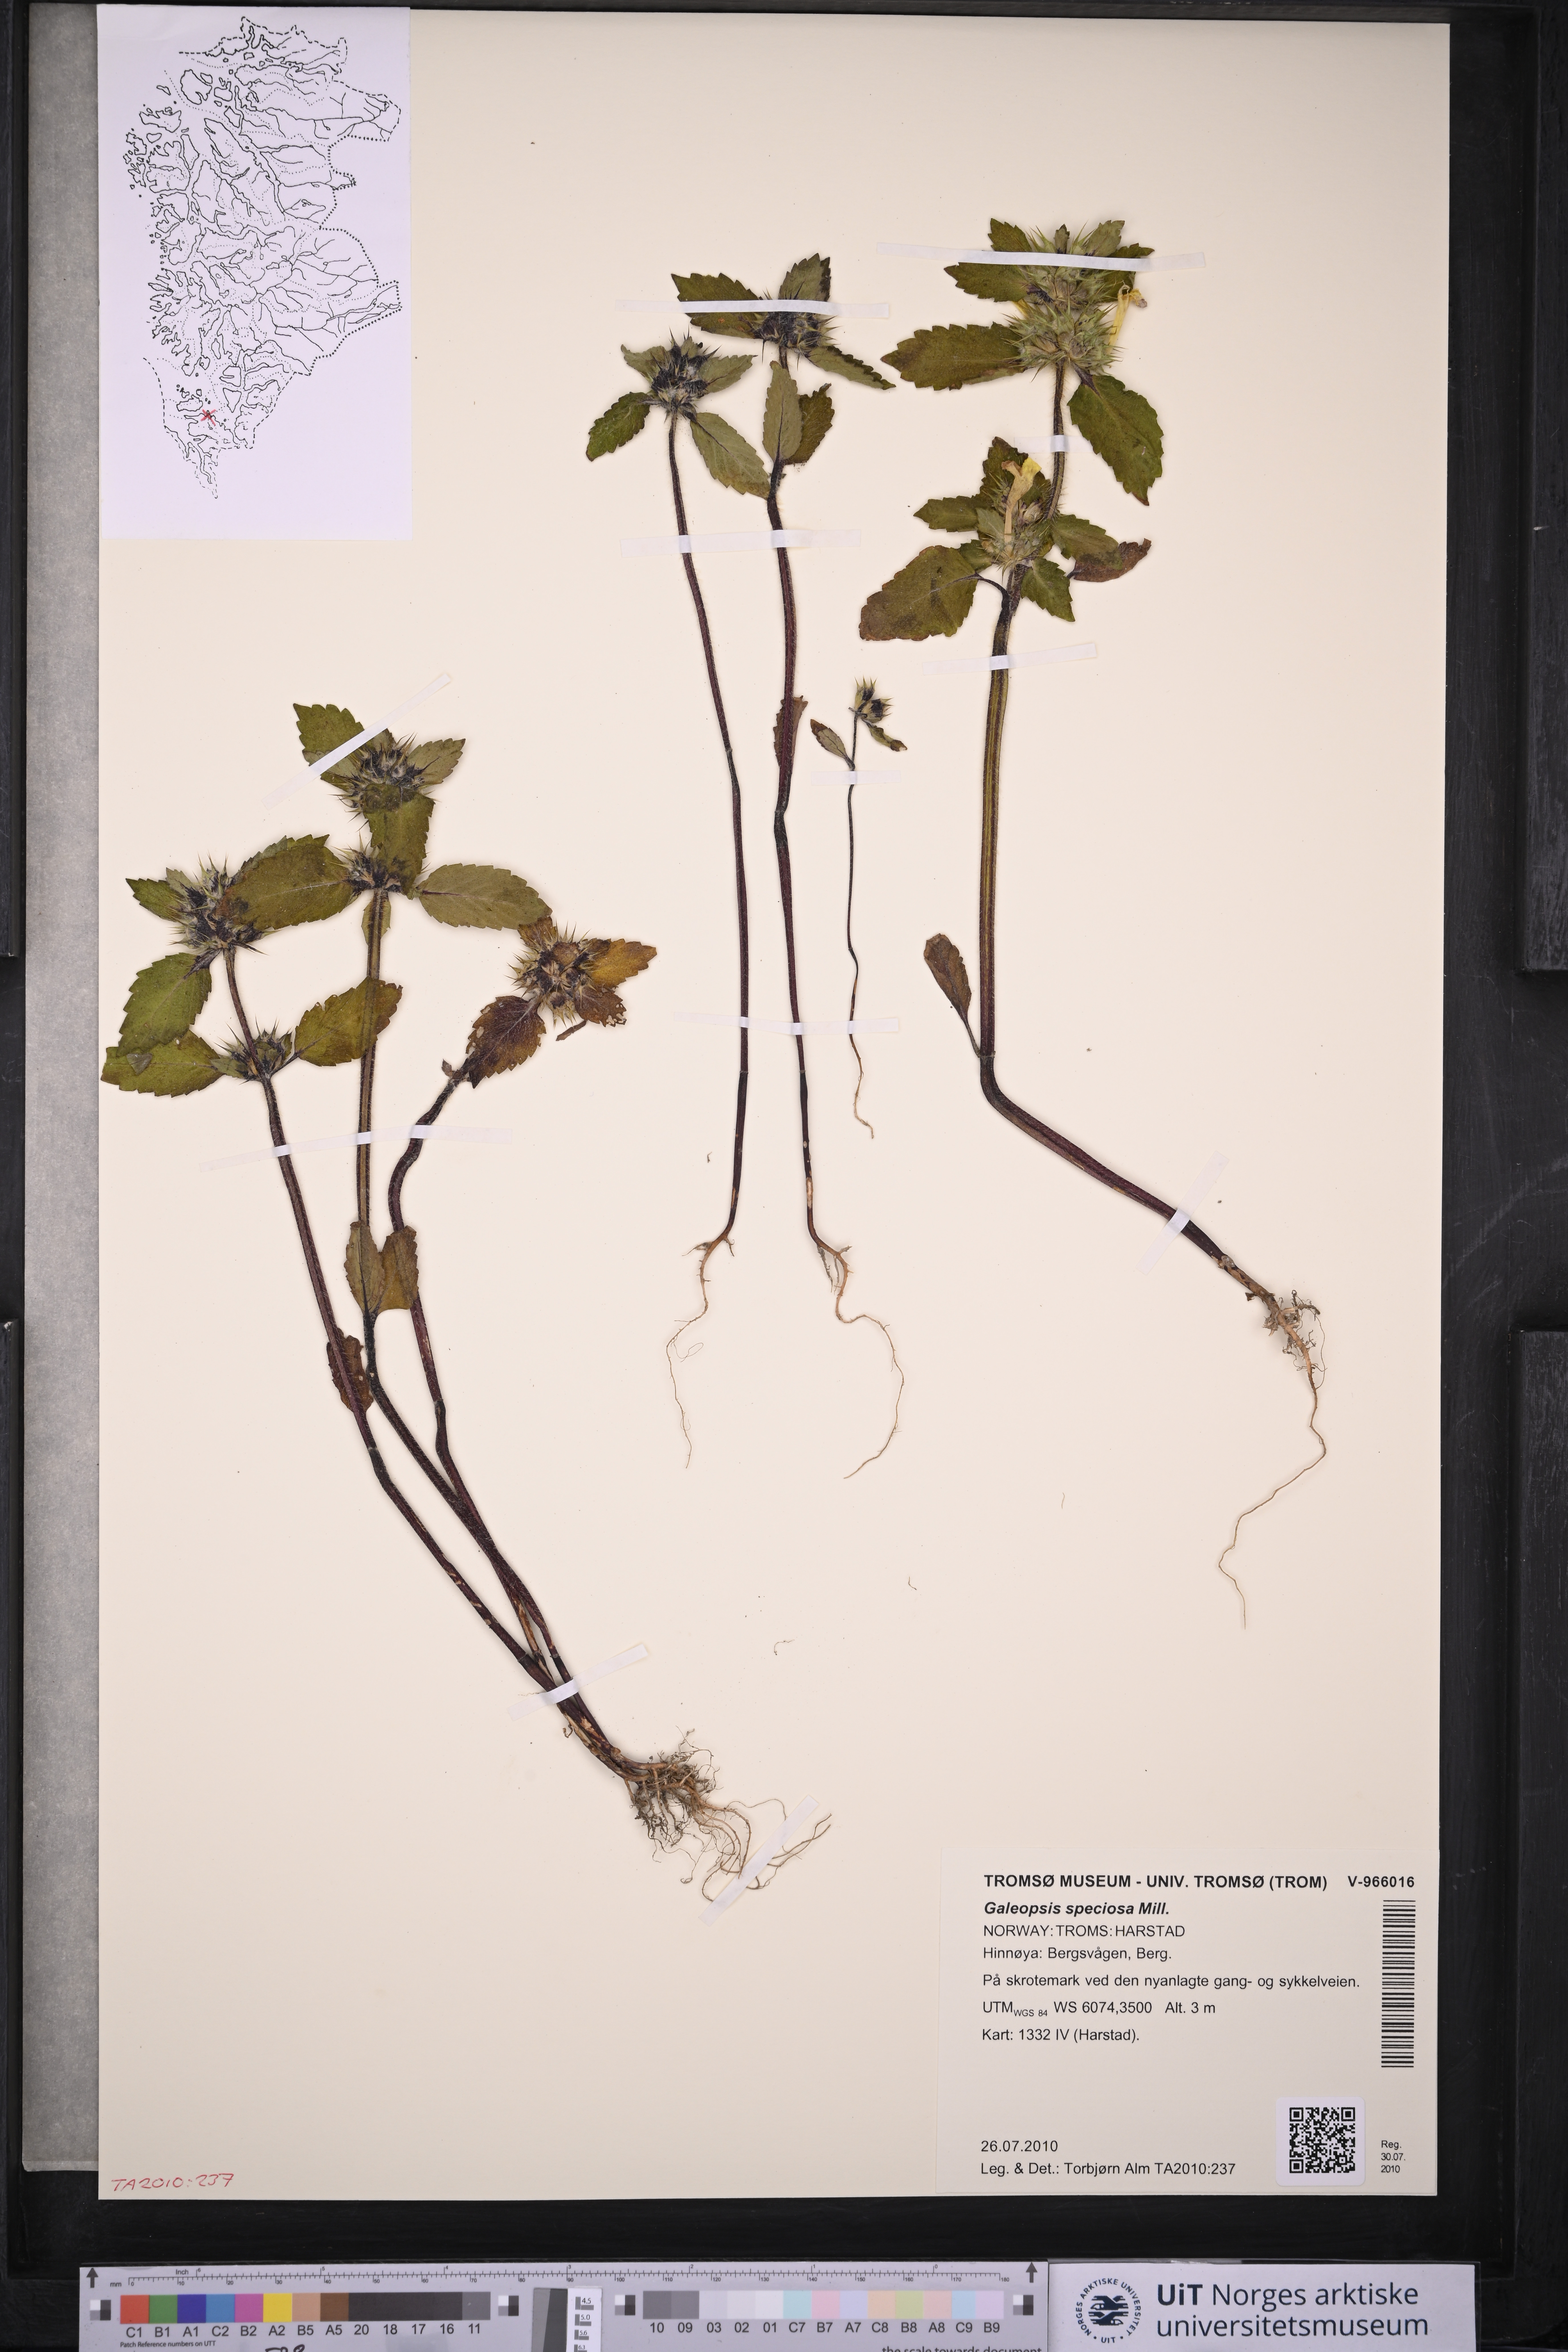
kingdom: Plantae
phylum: Tracheophyta
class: Magnoliopsida
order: Lamiales
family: Lamiaceae
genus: Galeopsis
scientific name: Galeopsis speciosa
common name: Large-flowered hemp-nettle
